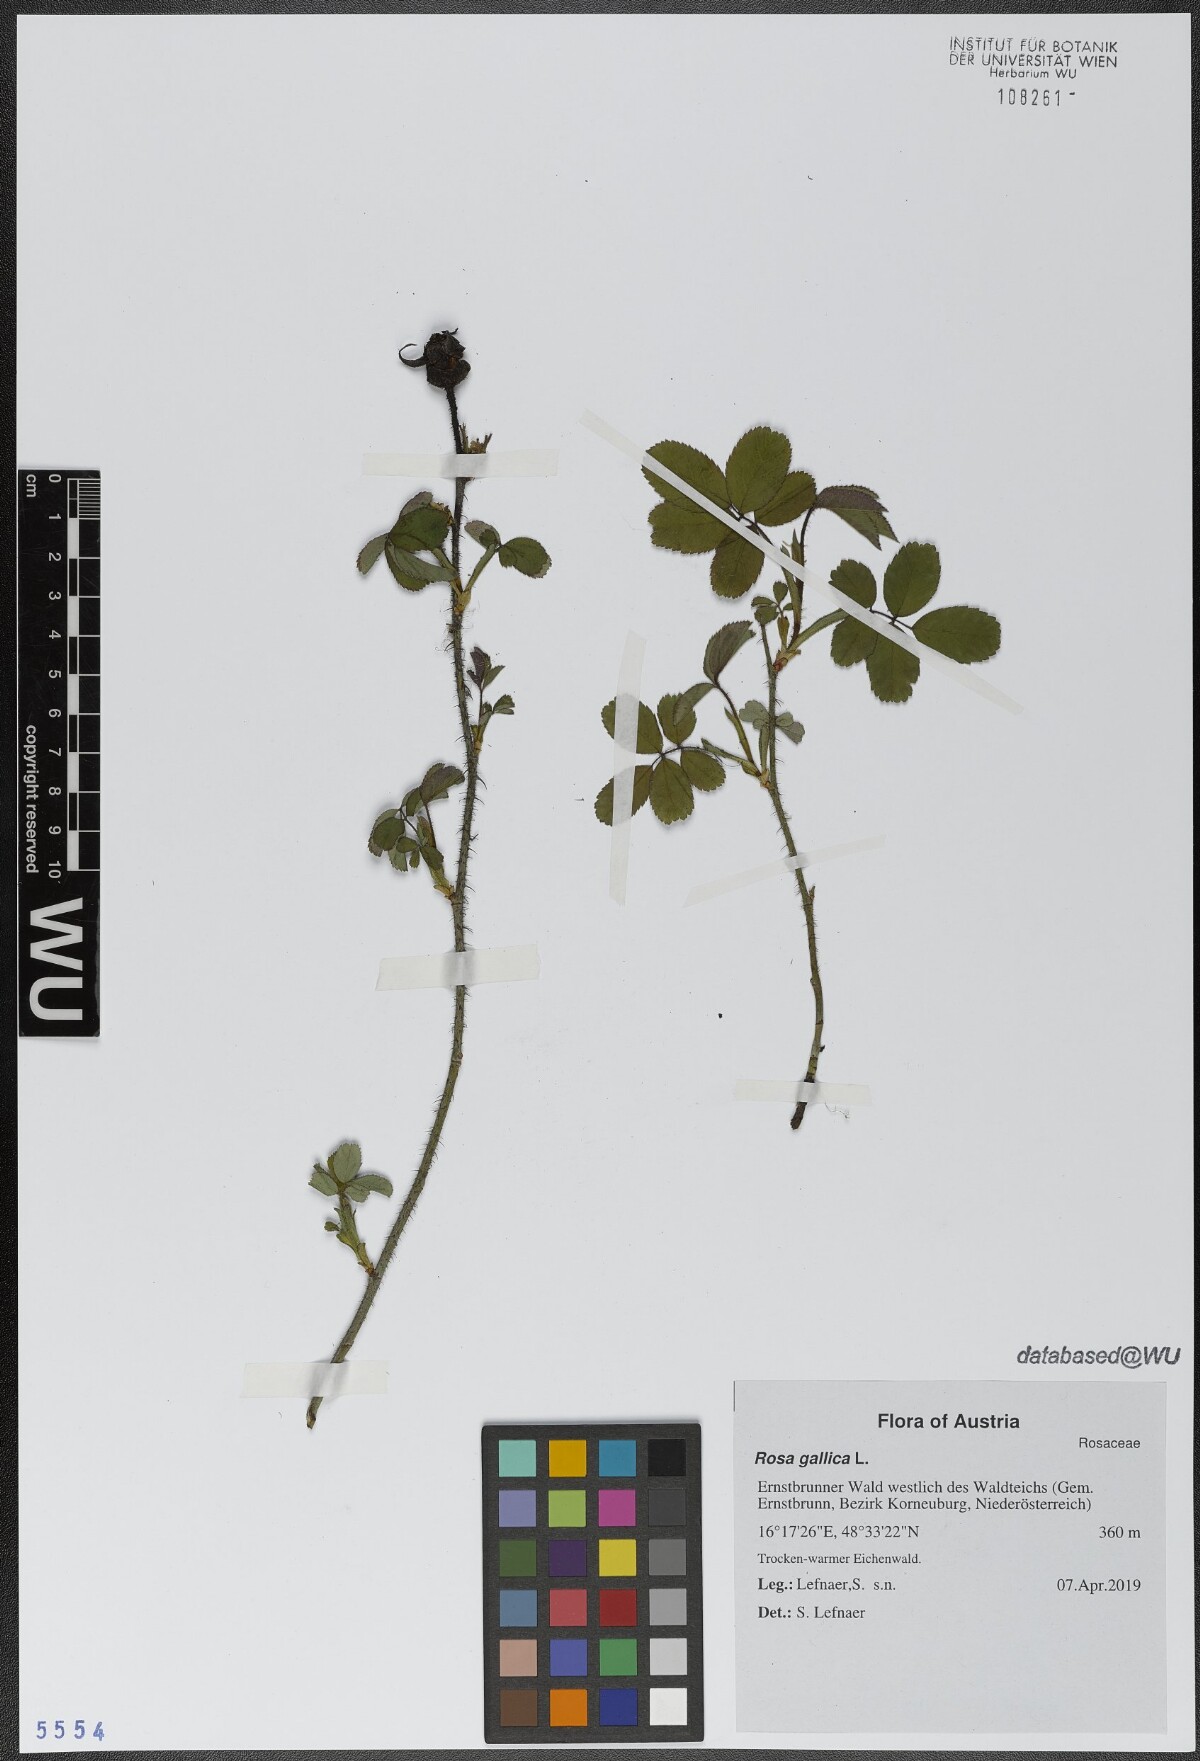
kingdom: Plantae
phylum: Tracheophyta
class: Magnoliopsida
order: Rosales
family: Rosaceae
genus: Rosa
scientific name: Rosa gallica
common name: French rose
